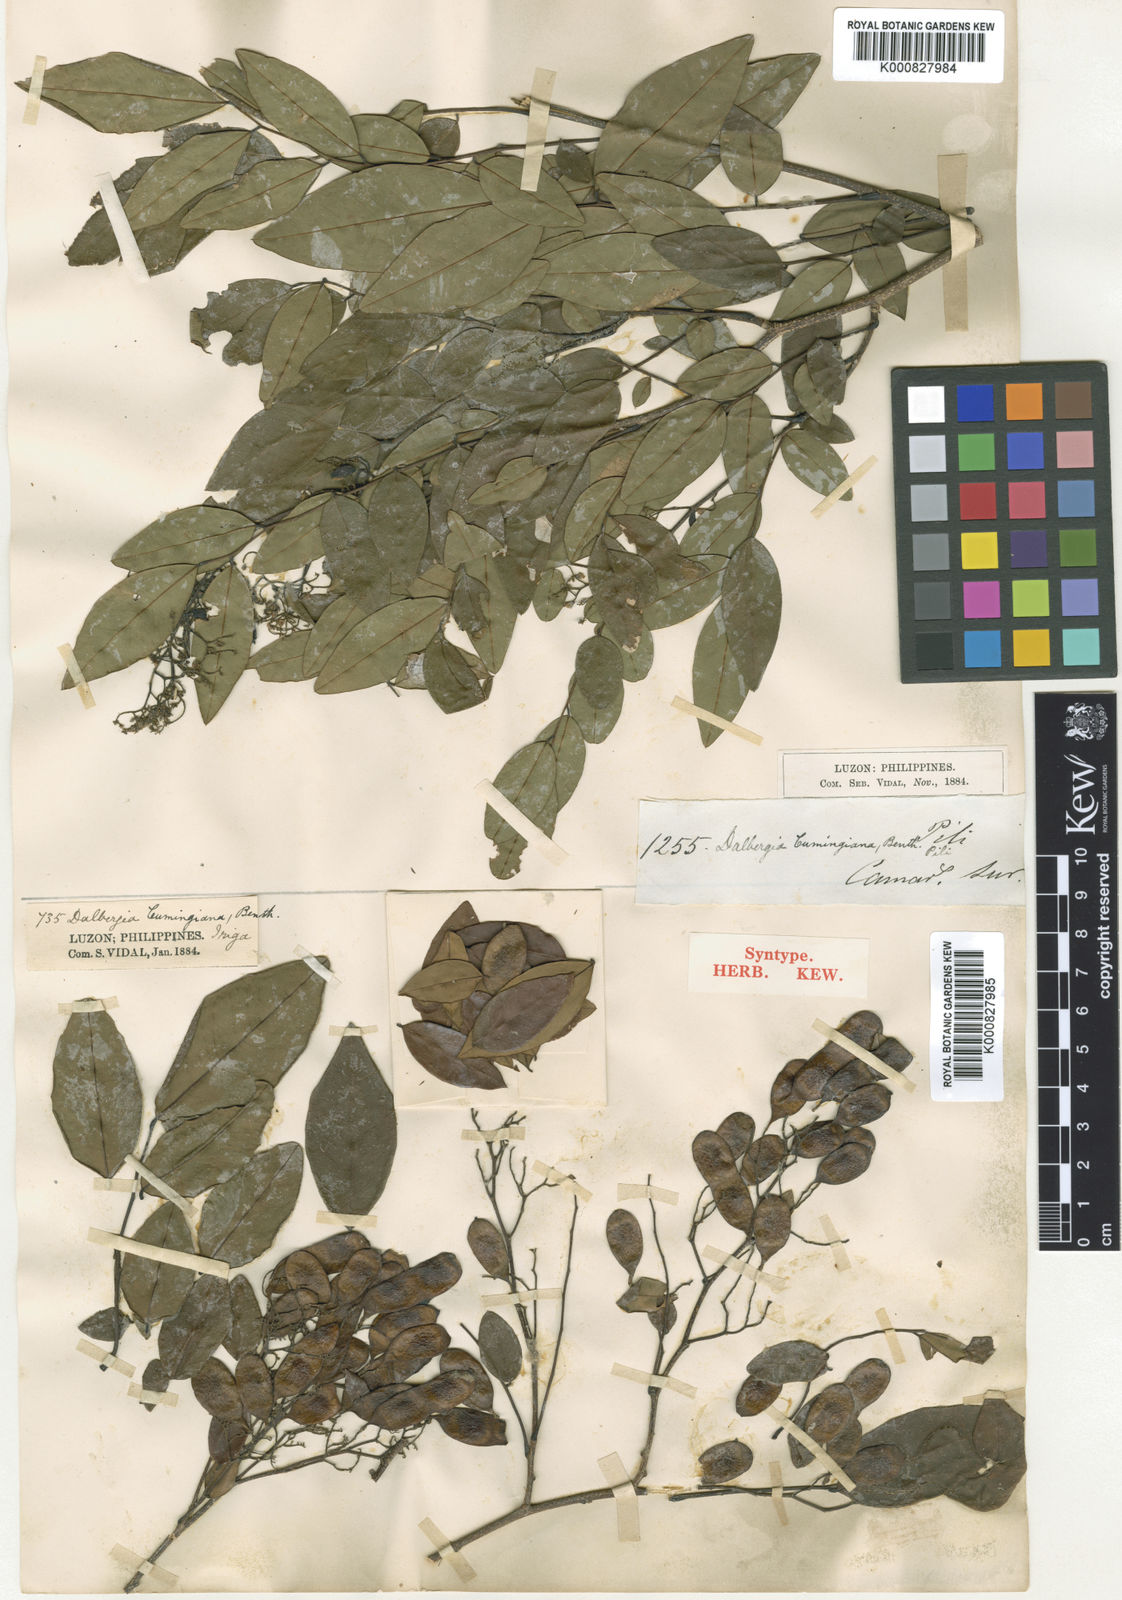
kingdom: Plantae
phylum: Tracheophyta
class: Magnoliopsida
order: Fabales
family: Fabaceae
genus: Dalbergia
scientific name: Dalbergia cumingiana
